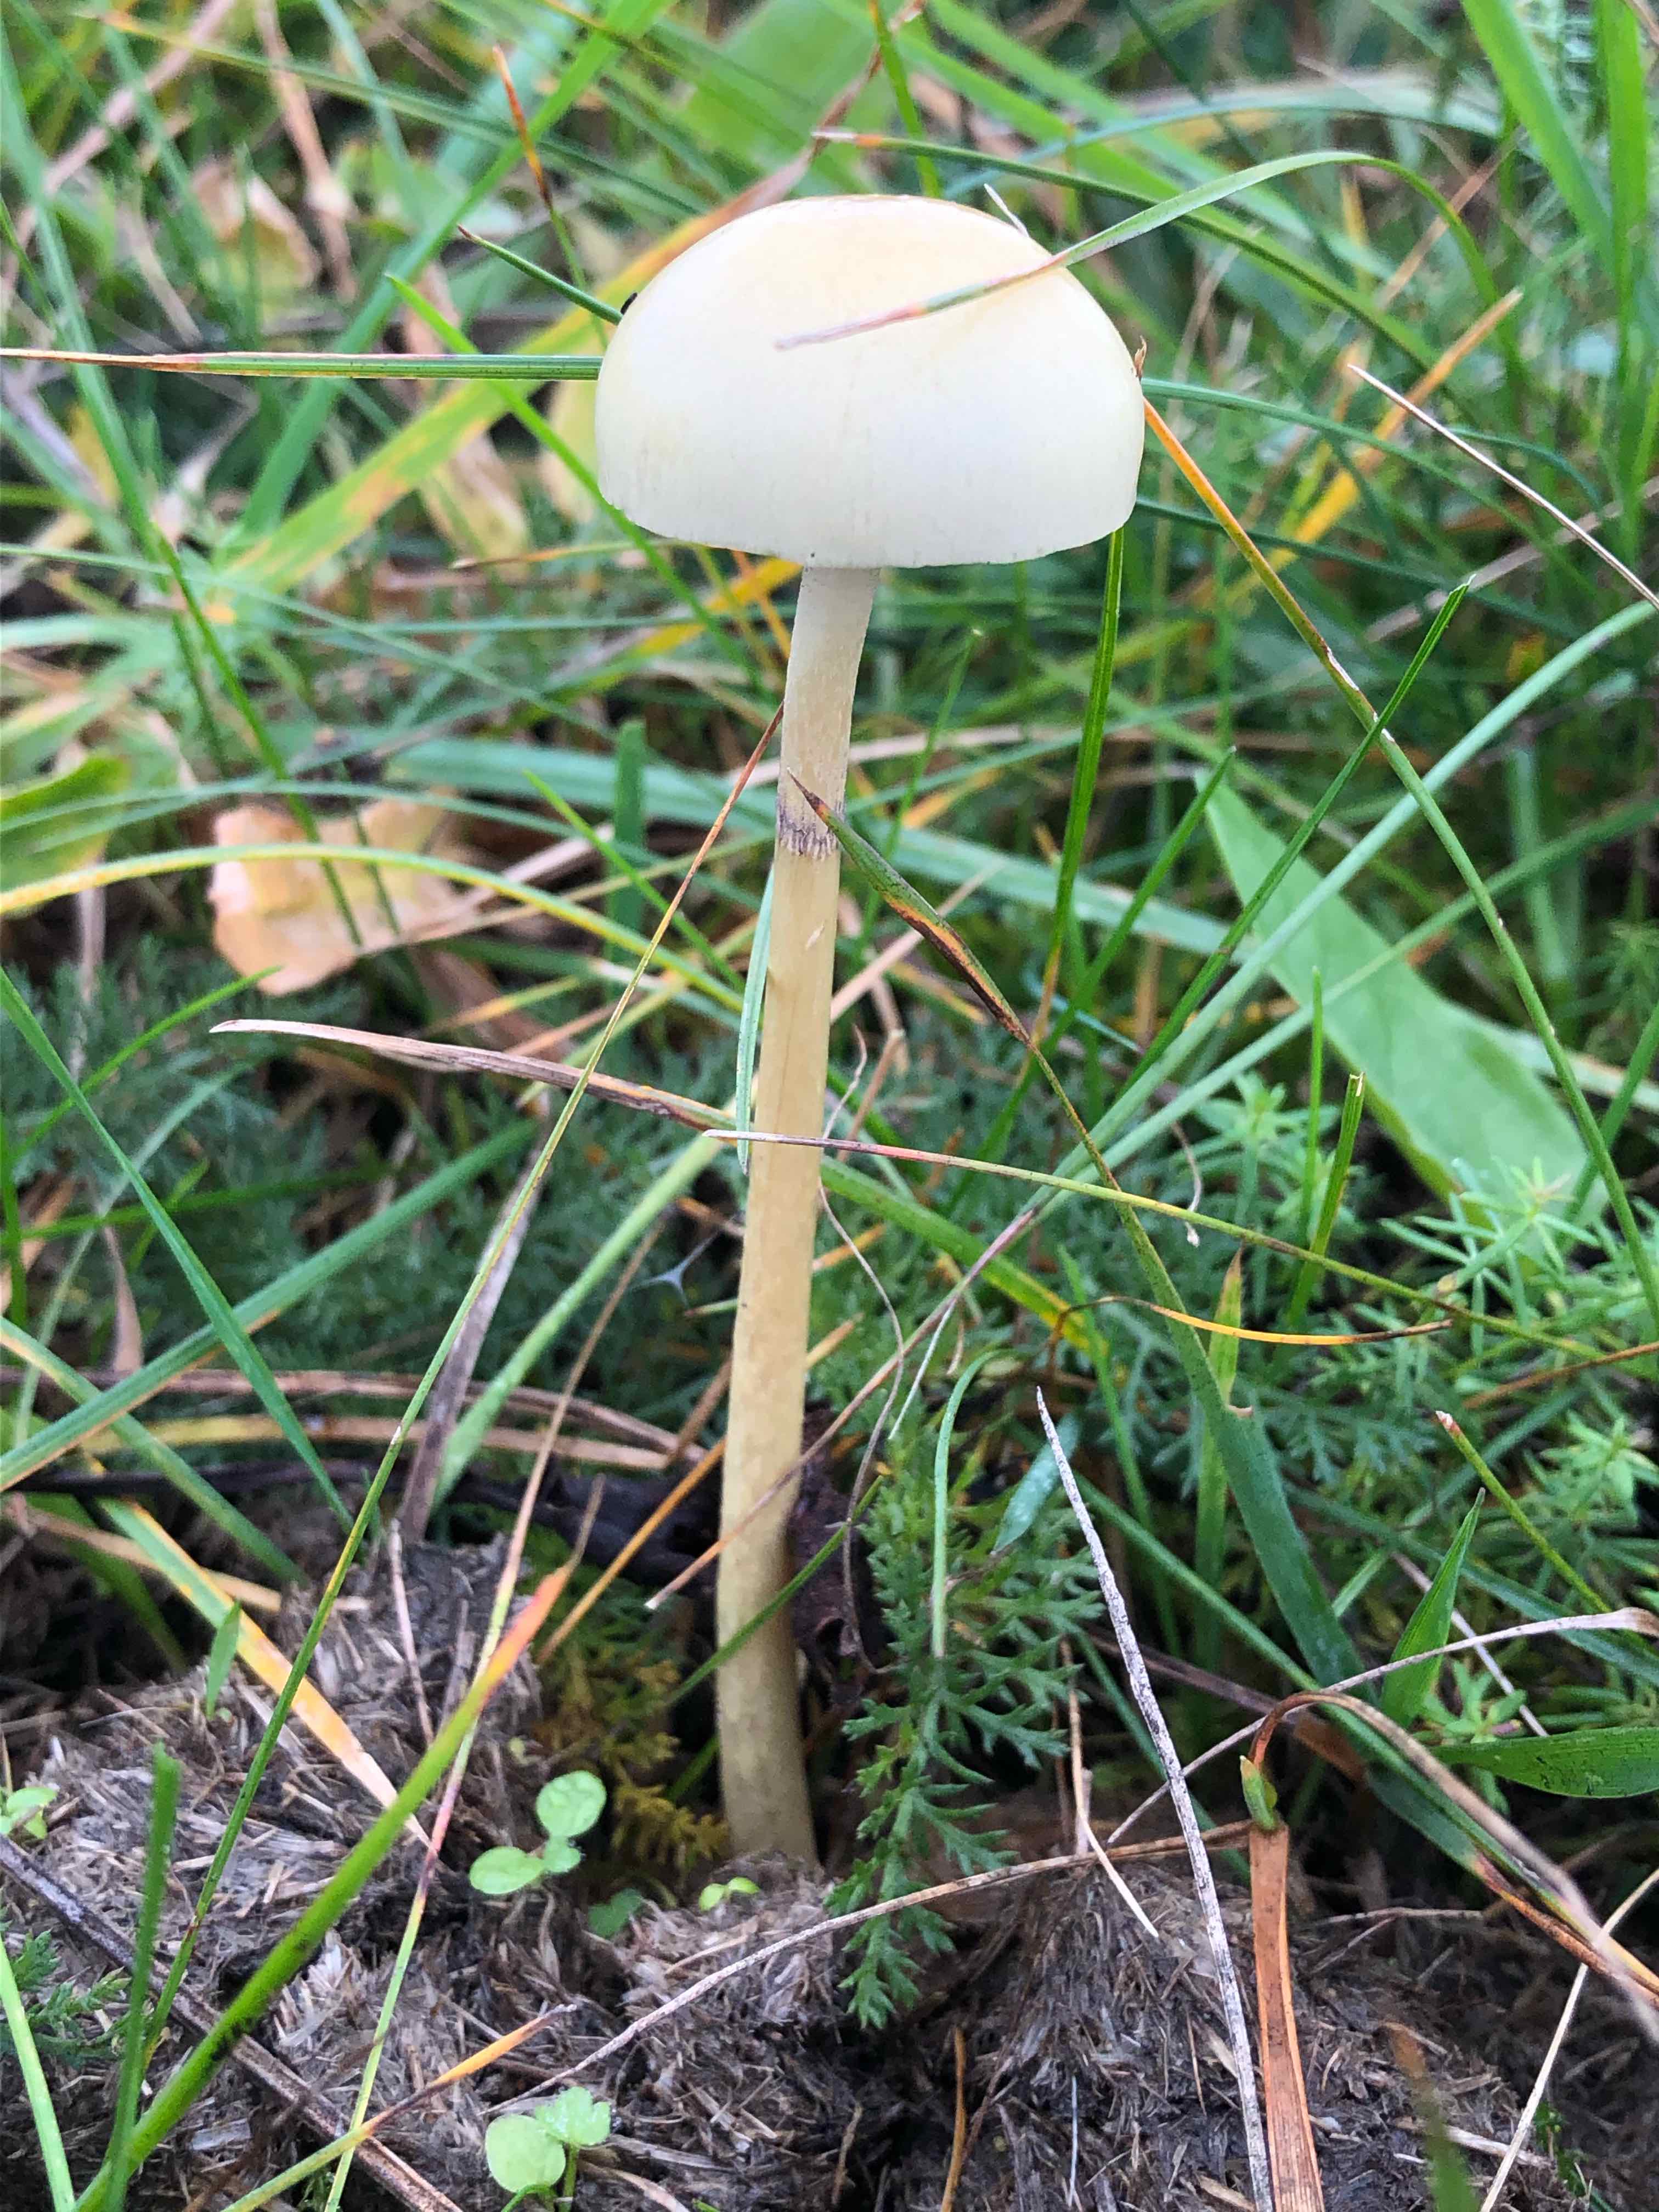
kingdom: Fungi
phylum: Basidiomycota
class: Agaricomycetes
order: Agaricales
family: Strophariaceae
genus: Protostropharia
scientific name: Protostropharia semiglobata
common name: halvkugleformet bredblad
